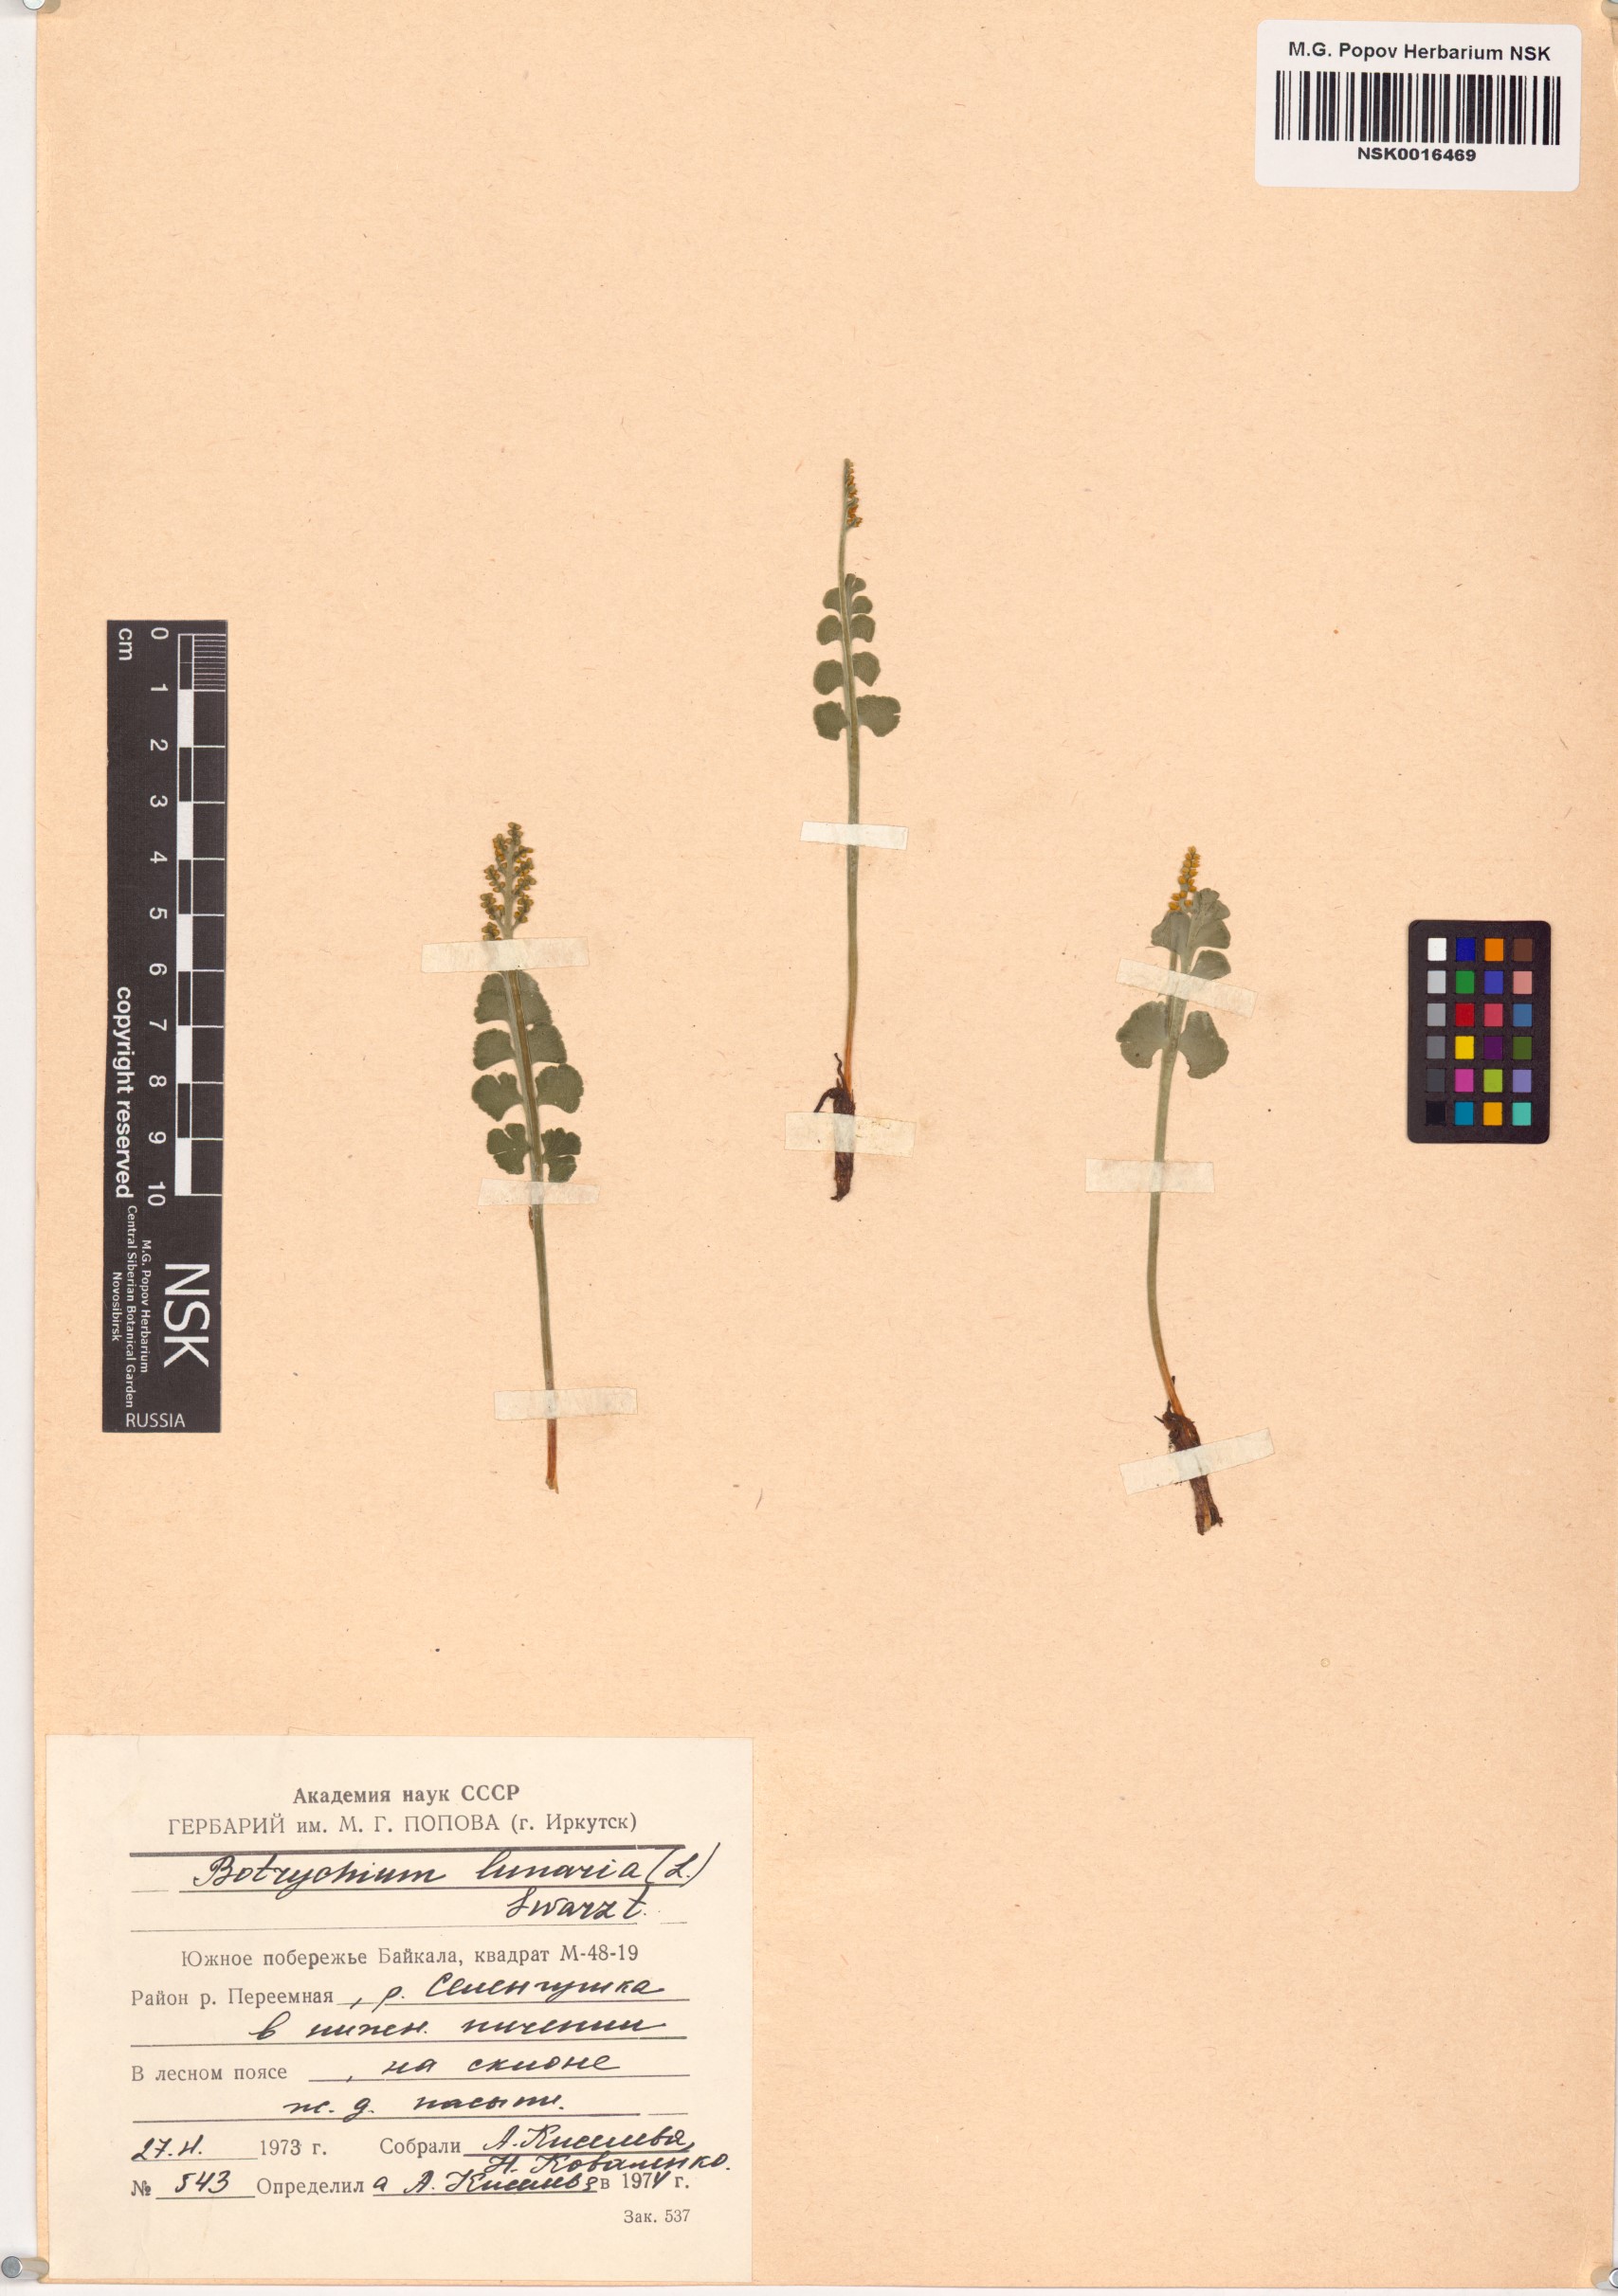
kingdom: Plantae
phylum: Tracheophyta
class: Polypodiopsida
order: Ophioglossales
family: Ophioglossaceae
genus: Botrychium
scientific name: Botrychium lunaria
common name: Moonwort
